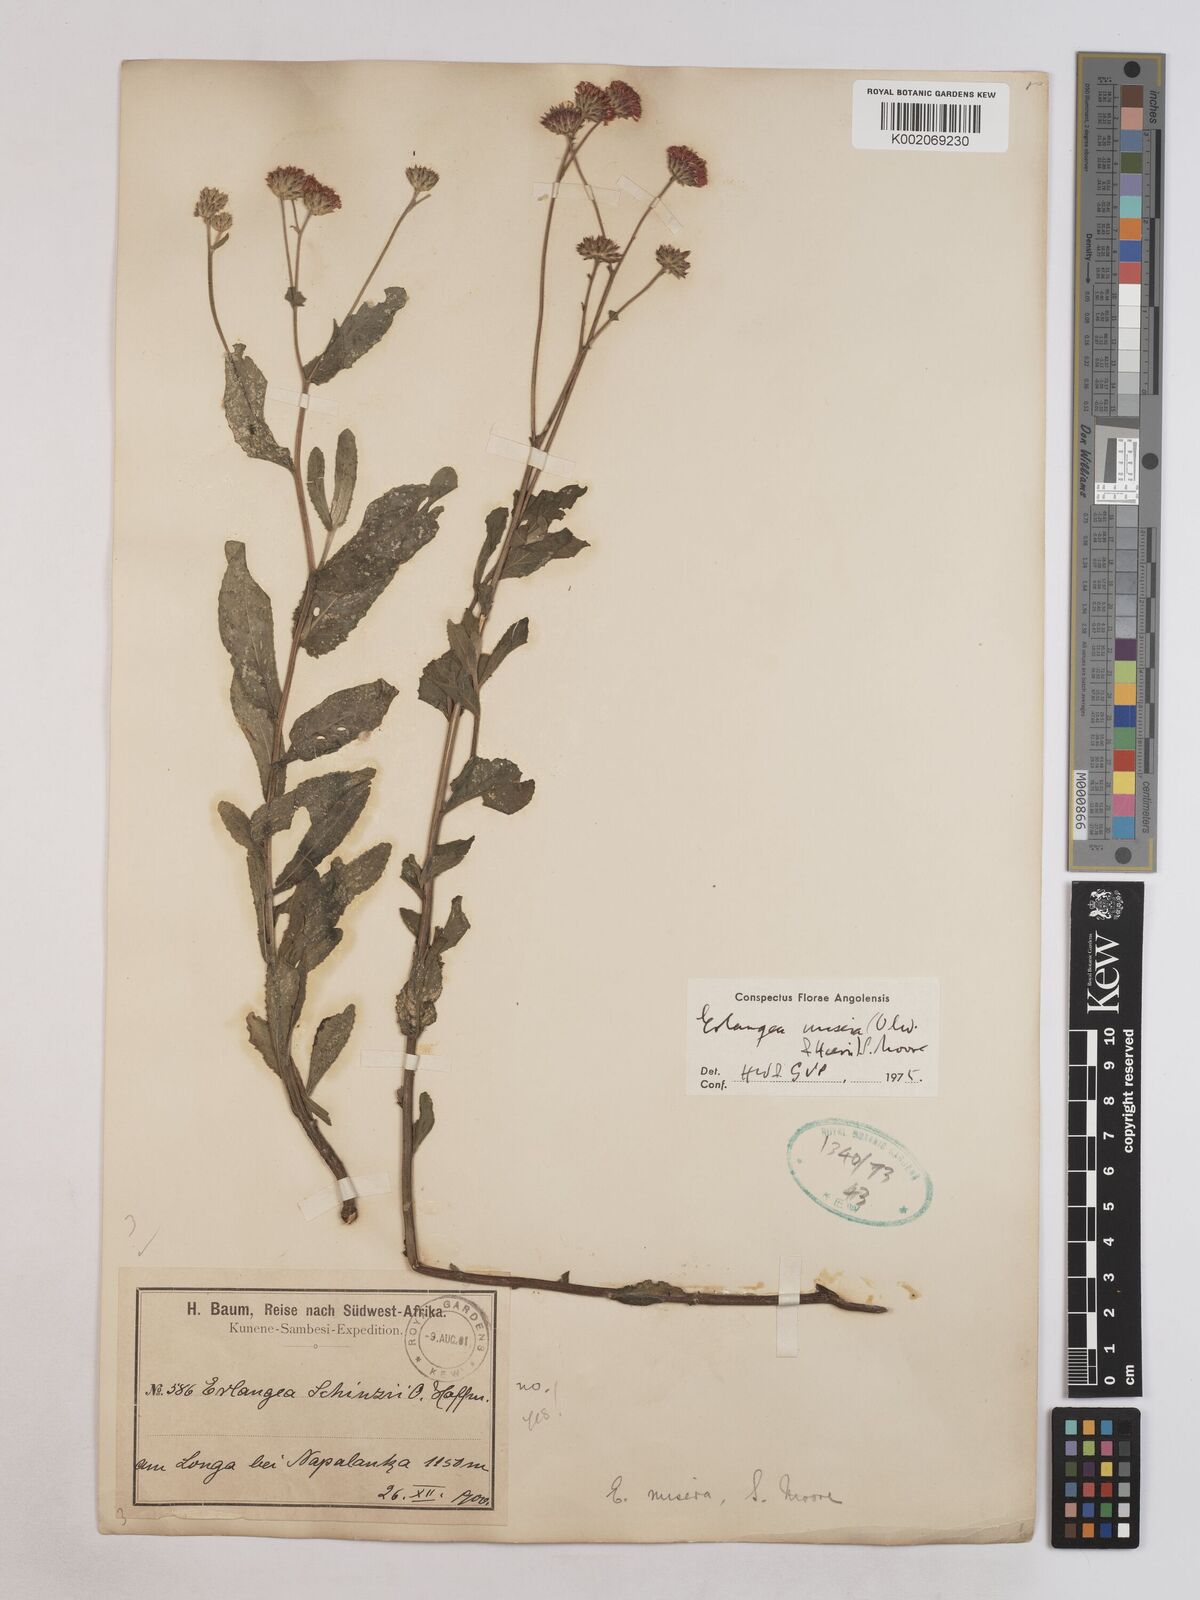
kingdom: Plantae
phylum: Tracheophyta
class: Magnoliopsida
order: Asterales
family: Asteraceae
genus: Erlangea
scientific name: Erlangea misera
